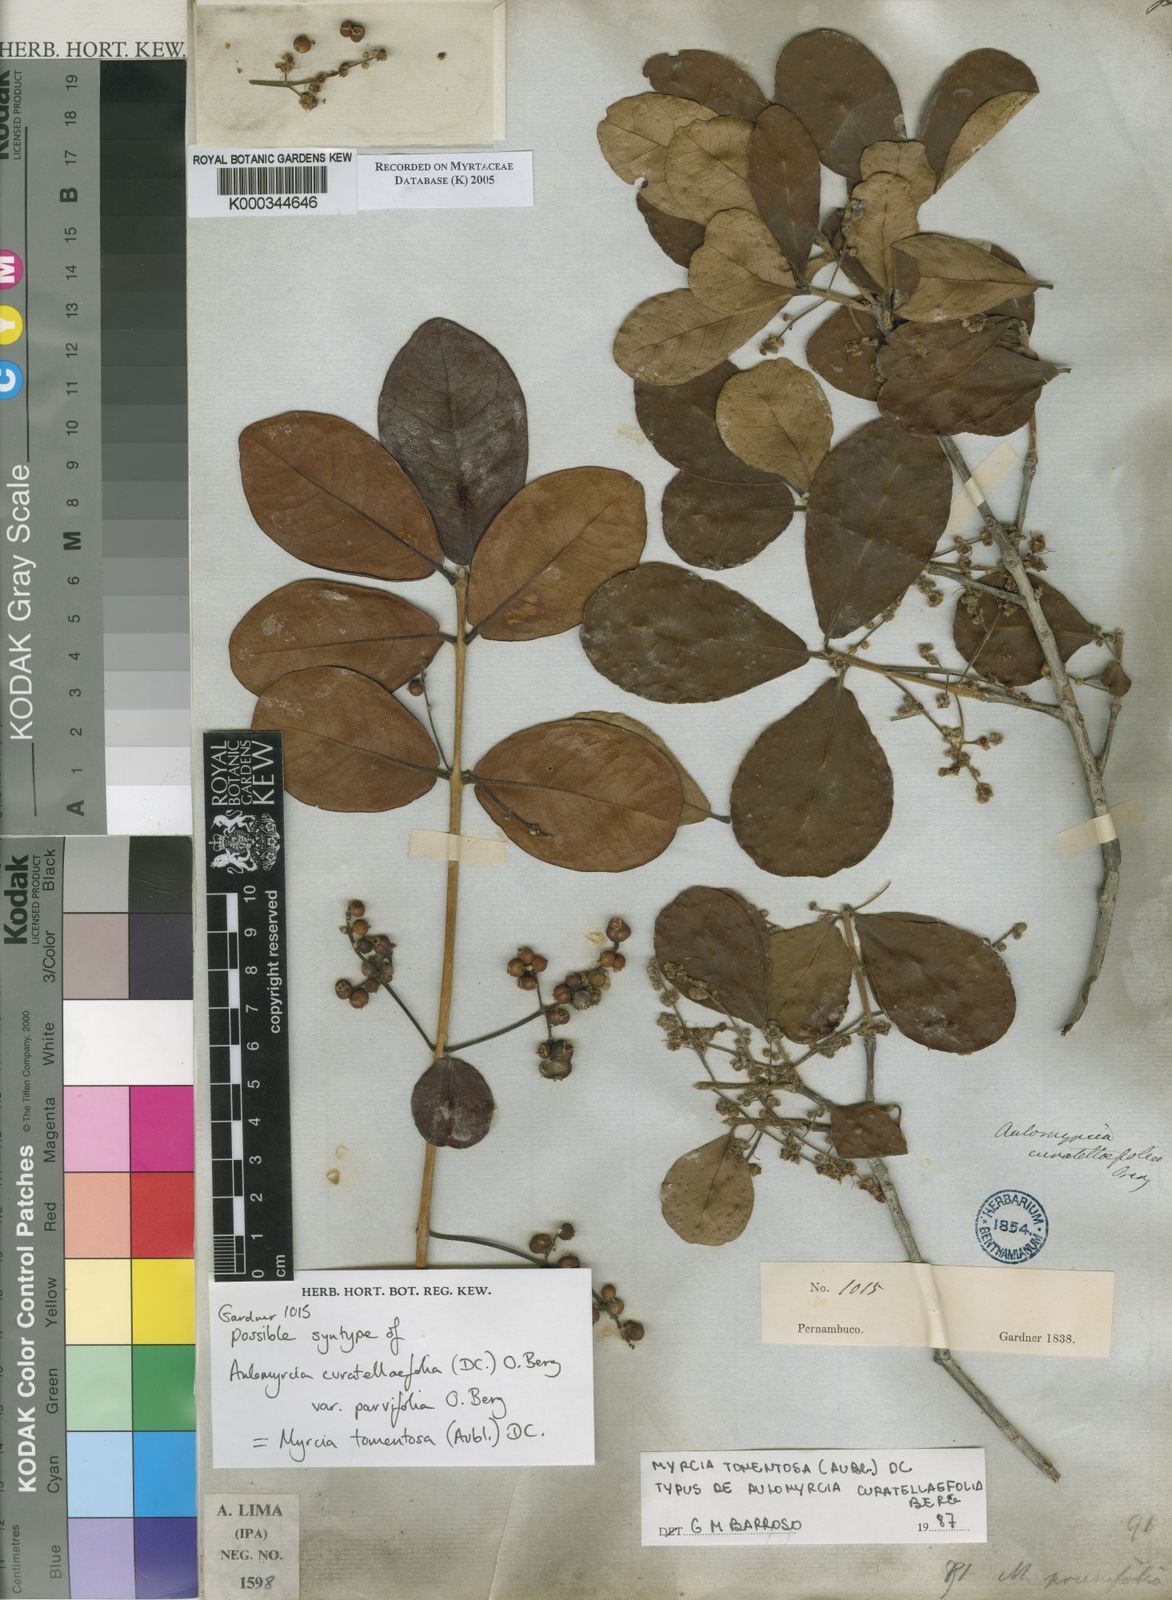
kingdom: Plantae
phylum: Tracheophyta
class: Magnoliopsida
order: Myrtales
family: Myrtaceae
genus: Myrcia
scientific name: Myrcia tomentosa
